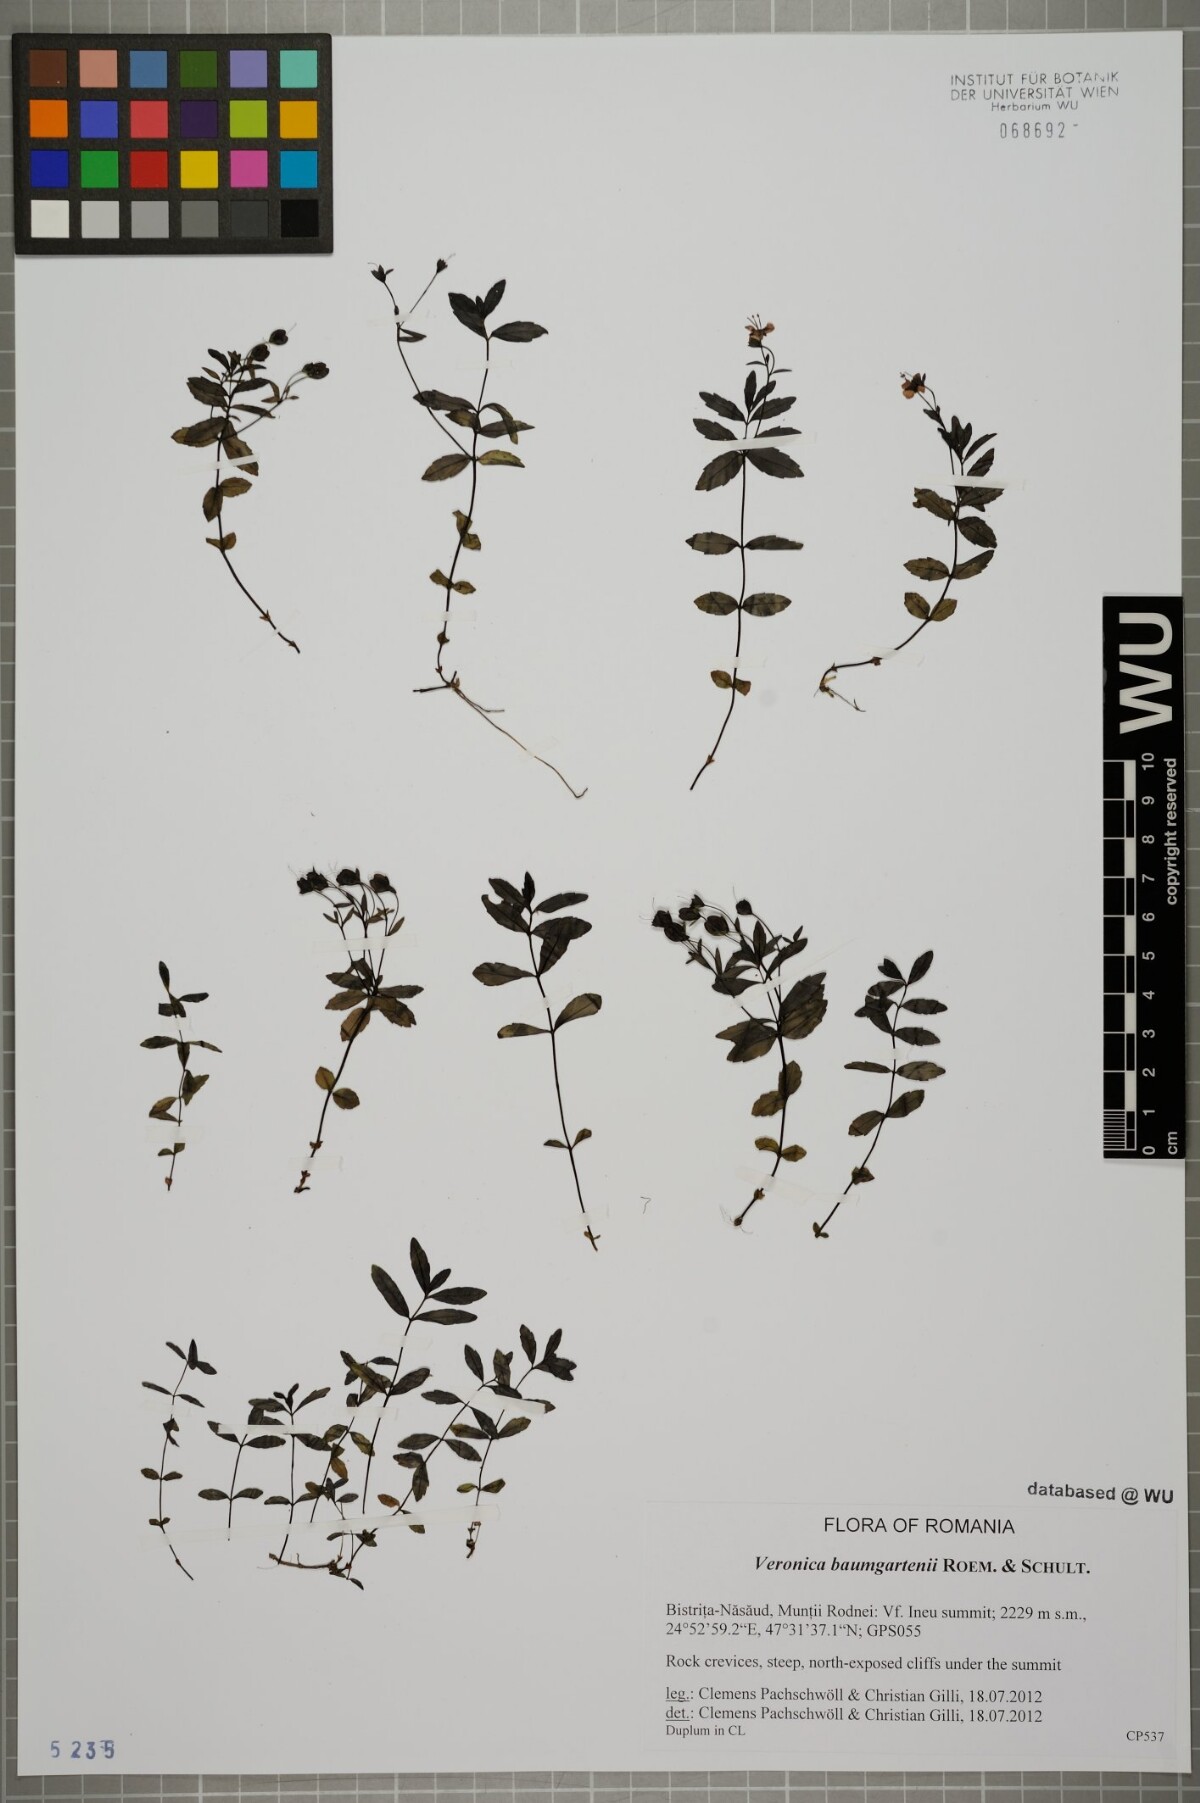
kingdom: Plantae
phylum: Tracheophyta
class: Magnoliopsida
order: Lamiales
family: Plantaginaceae
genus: Veronica
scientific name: Veronica baumgartenii
